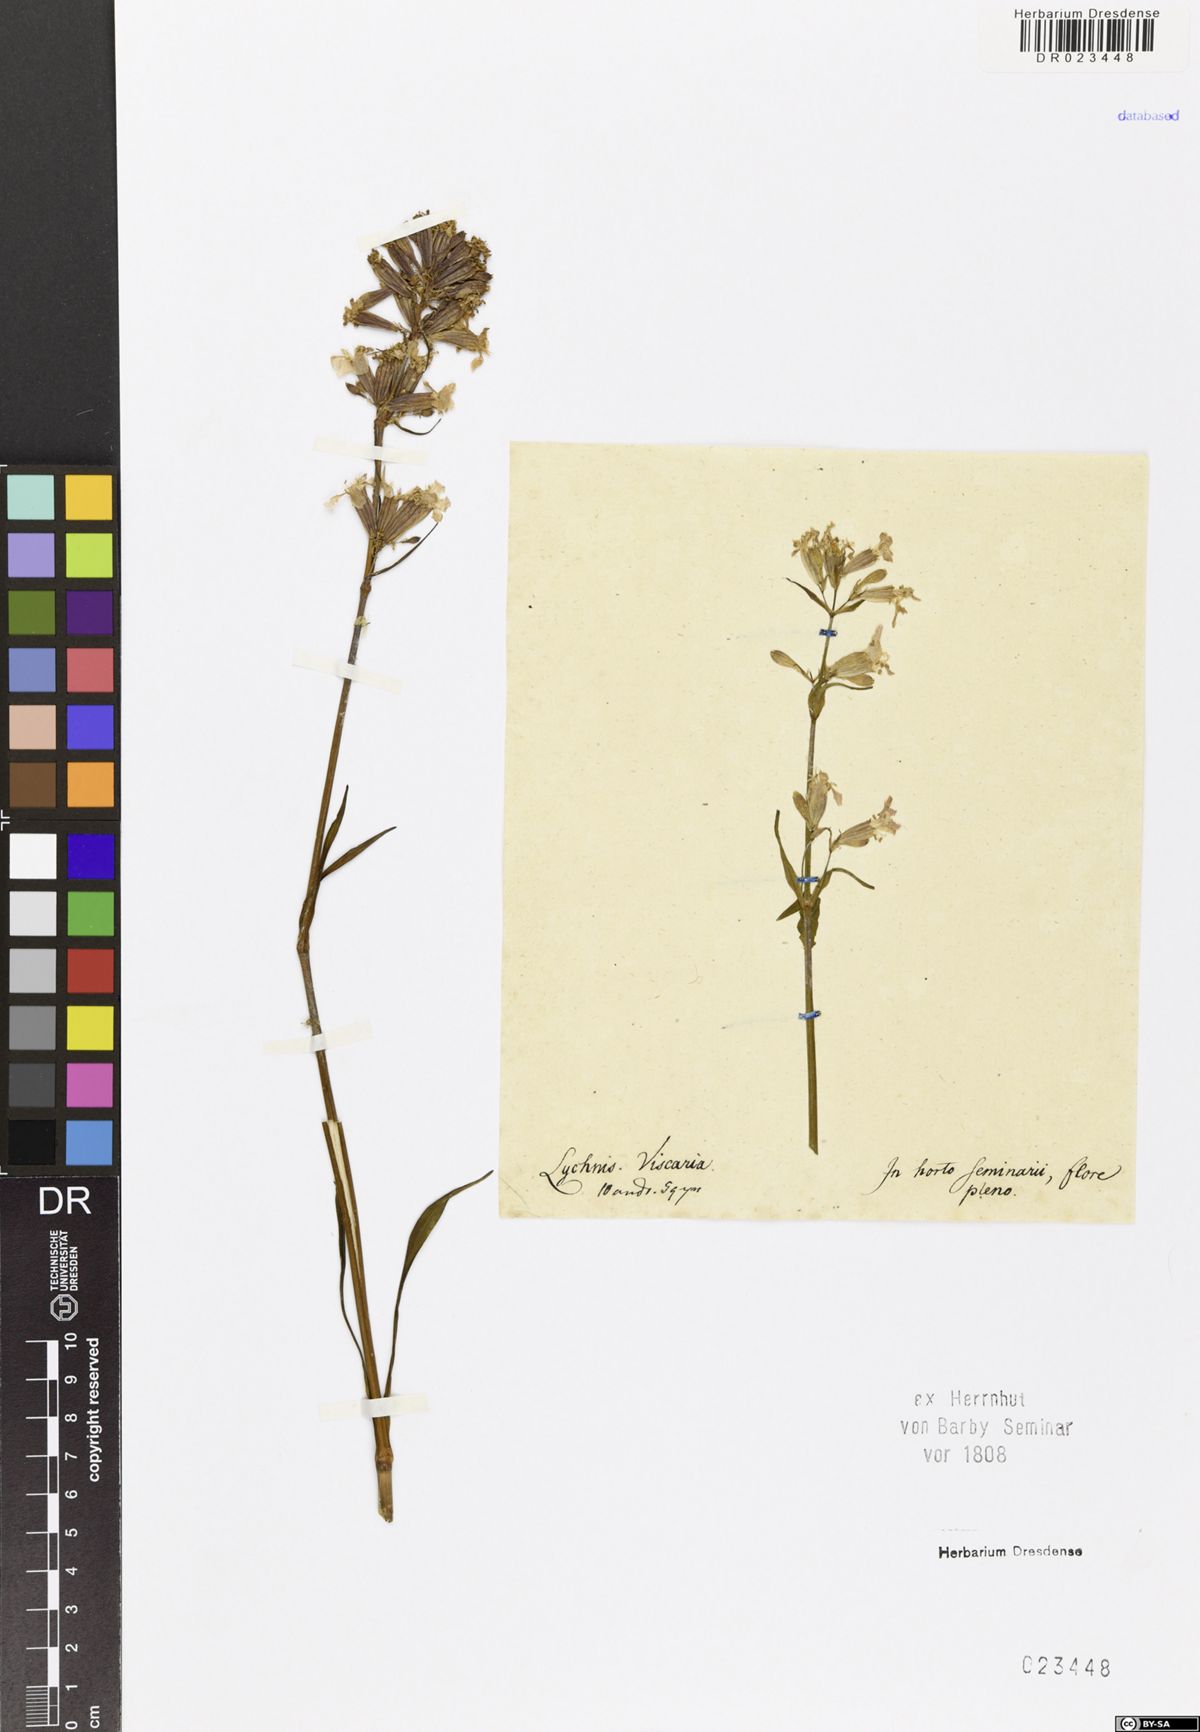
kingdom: Plantae
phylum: Tracheophyta
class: Magnoliopsida
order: Caryophyllales
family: Caryophyllaceae
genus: Viscaria
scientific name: Viscaria vulgaris
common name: Clammy campion
